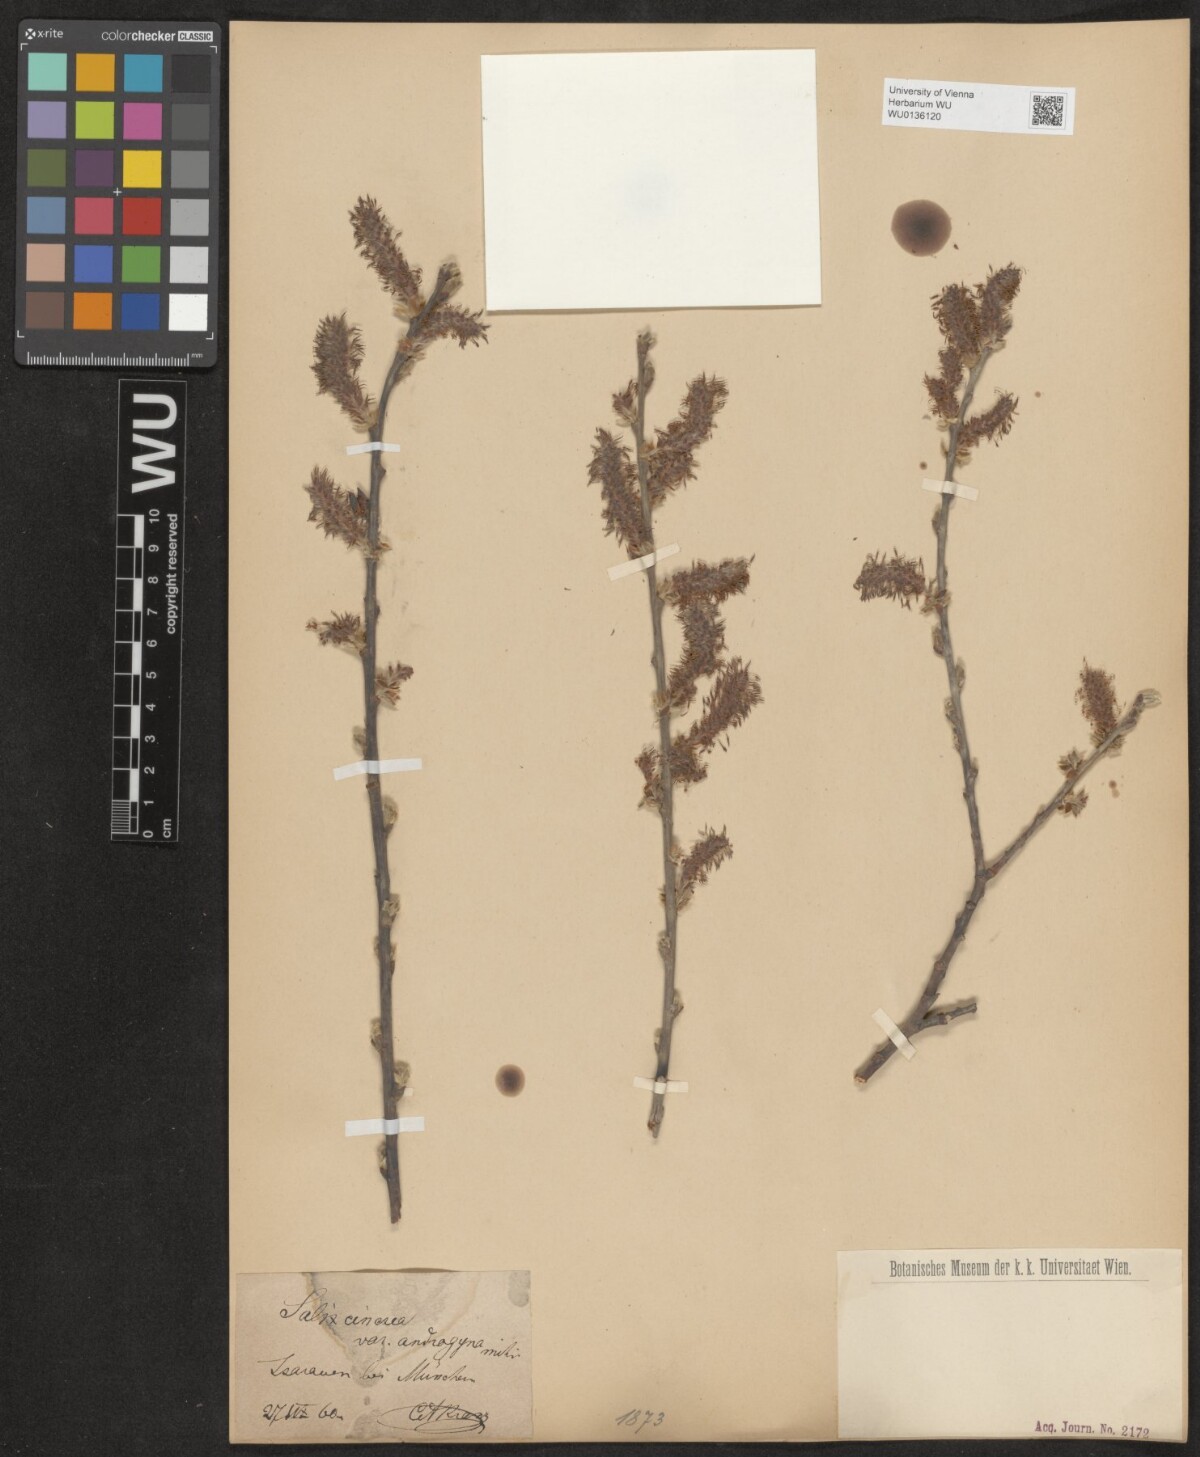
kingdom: Plantae
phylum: Tracheophyta
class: Magnoliopsida
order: Malpighiales
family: Salicaceae
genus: Salix
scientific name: Salix cinerea
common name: Common sallow
